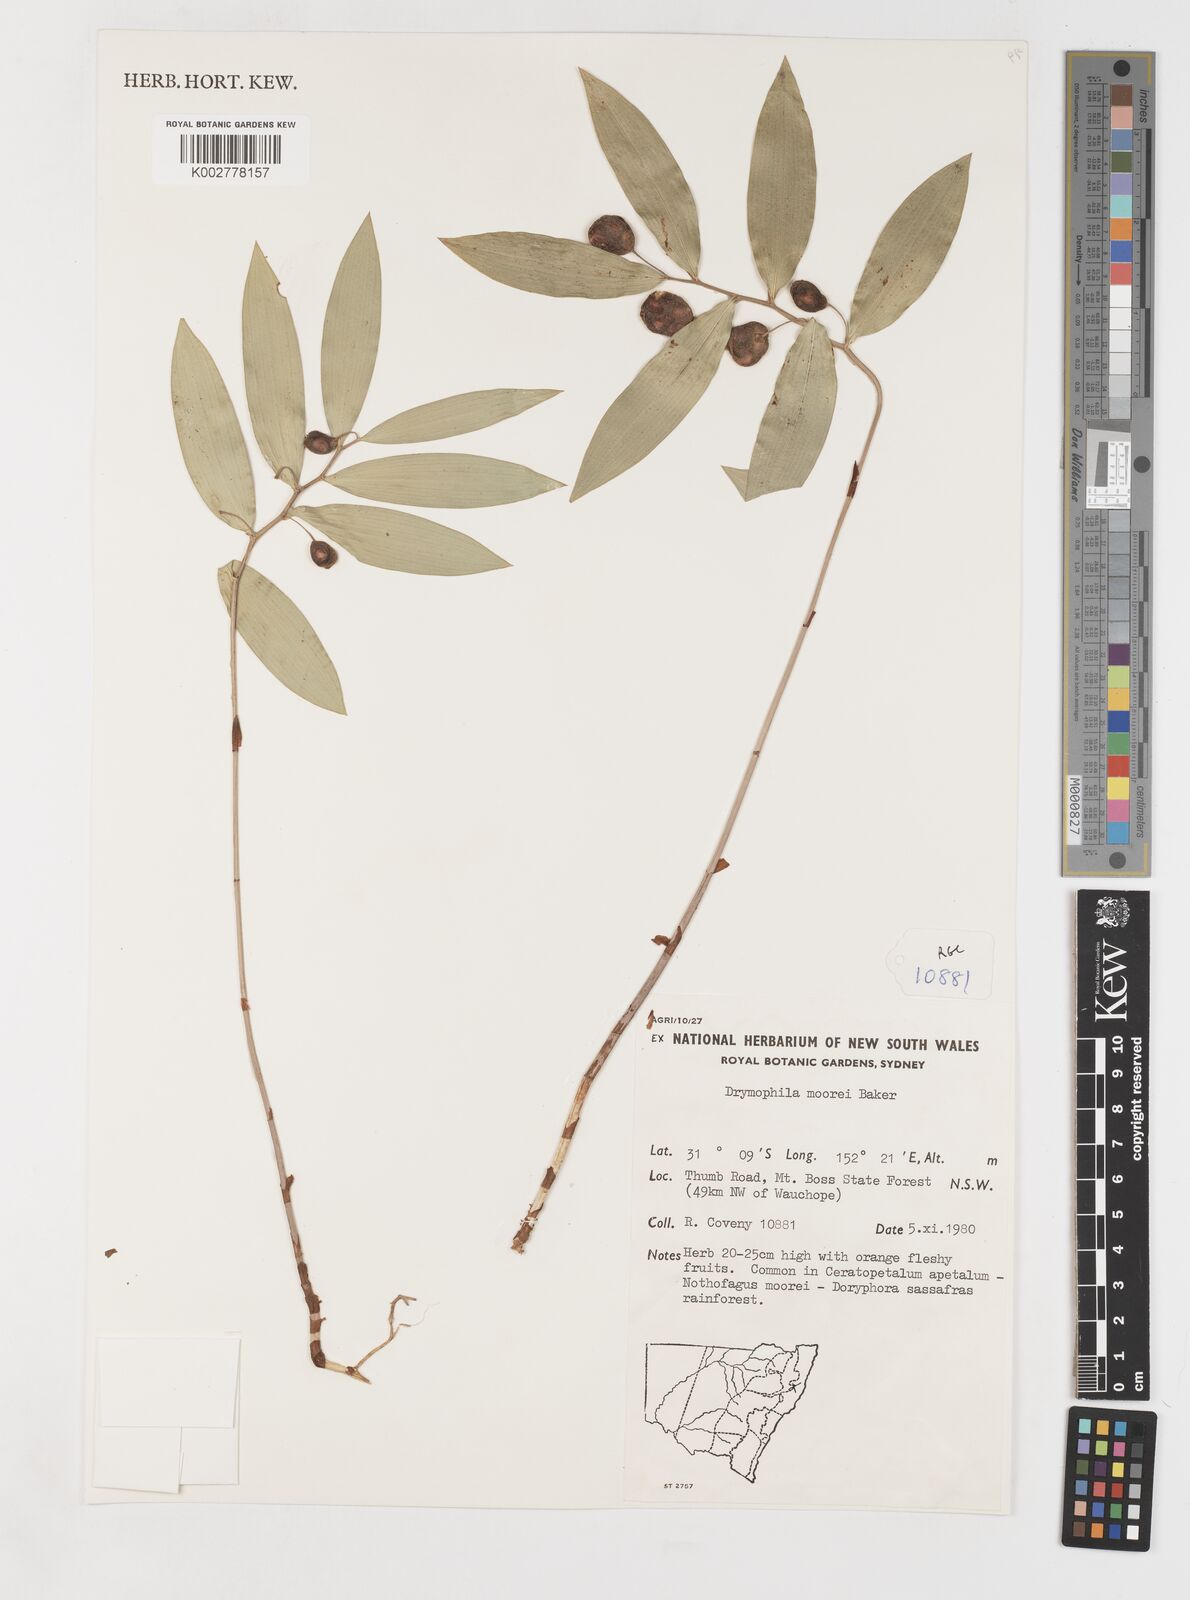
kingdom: Plantae
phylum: Tracheophyta
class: Liliopsida
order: Liliales
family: Alstroemeriaceae
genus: Drymophila
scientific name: Drymophila moorei
